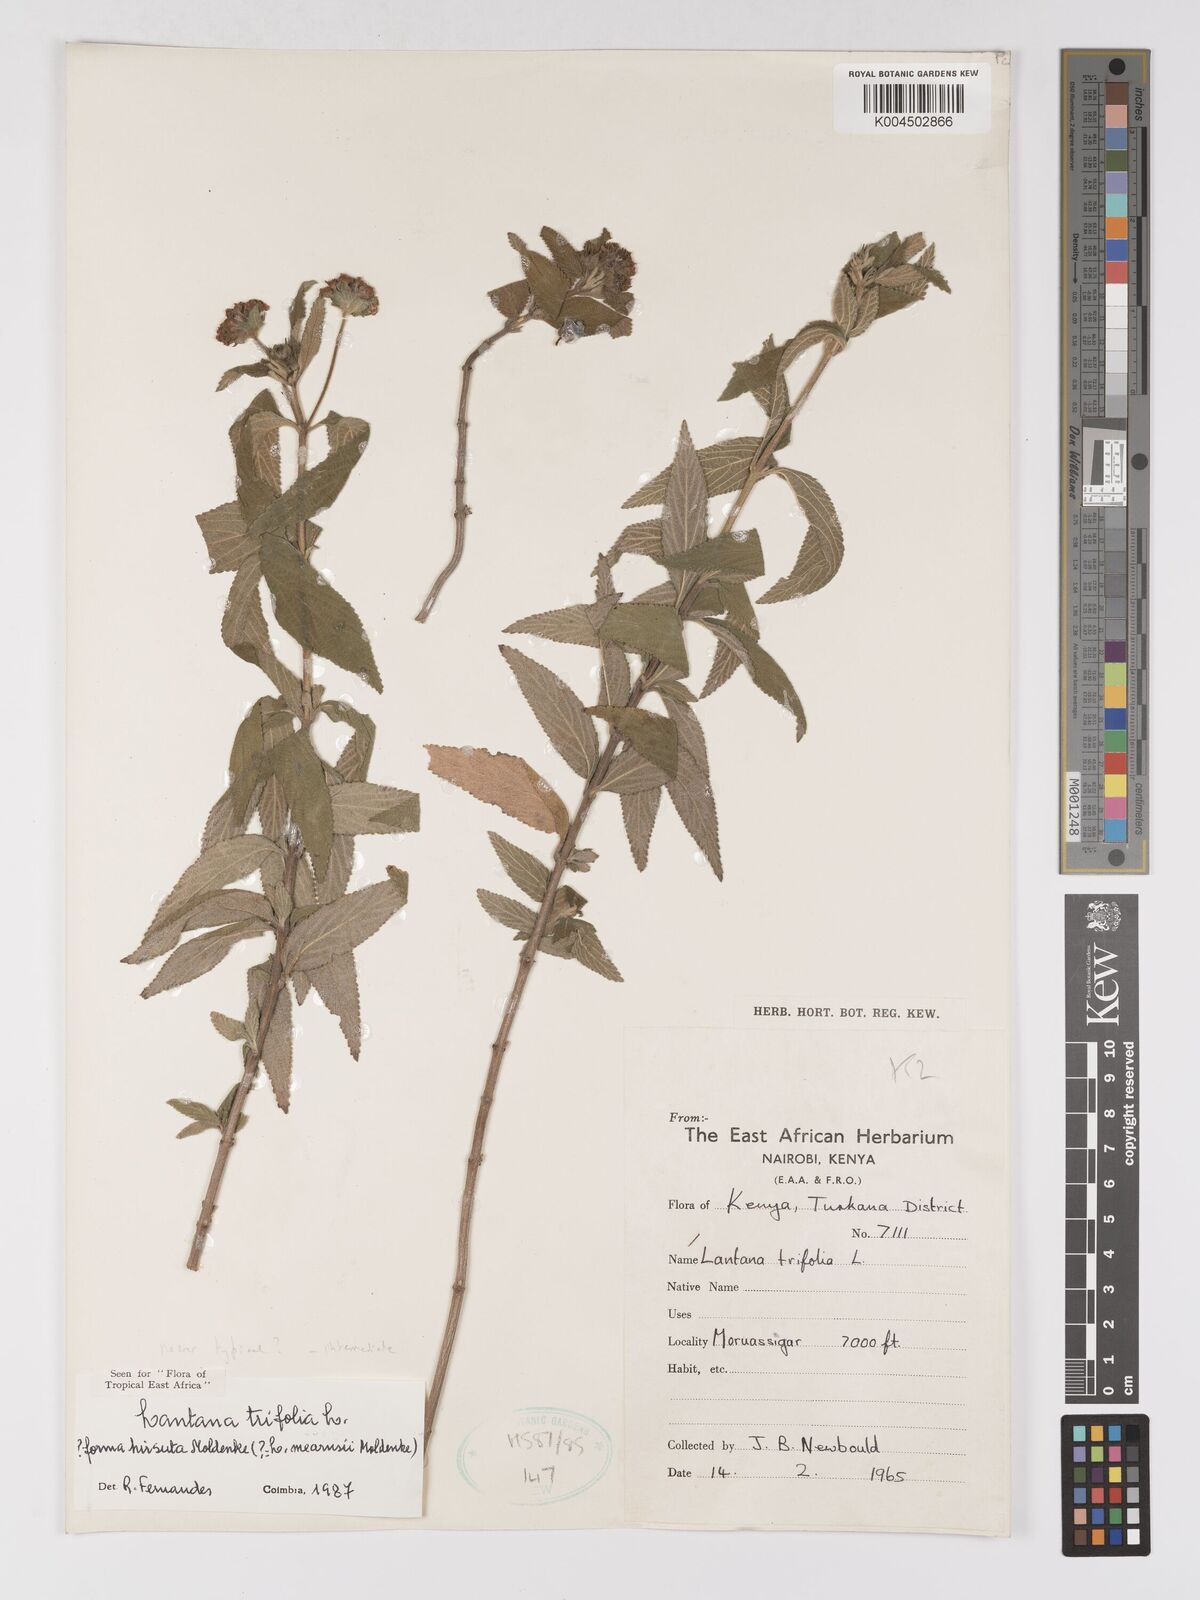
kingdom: Plantae
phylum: Tracheophyta
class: Magnoliopsida
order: Lamiales
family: Verbenaceae
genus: Lantana
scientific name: Lantana trifolia
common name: Sweet-sage
